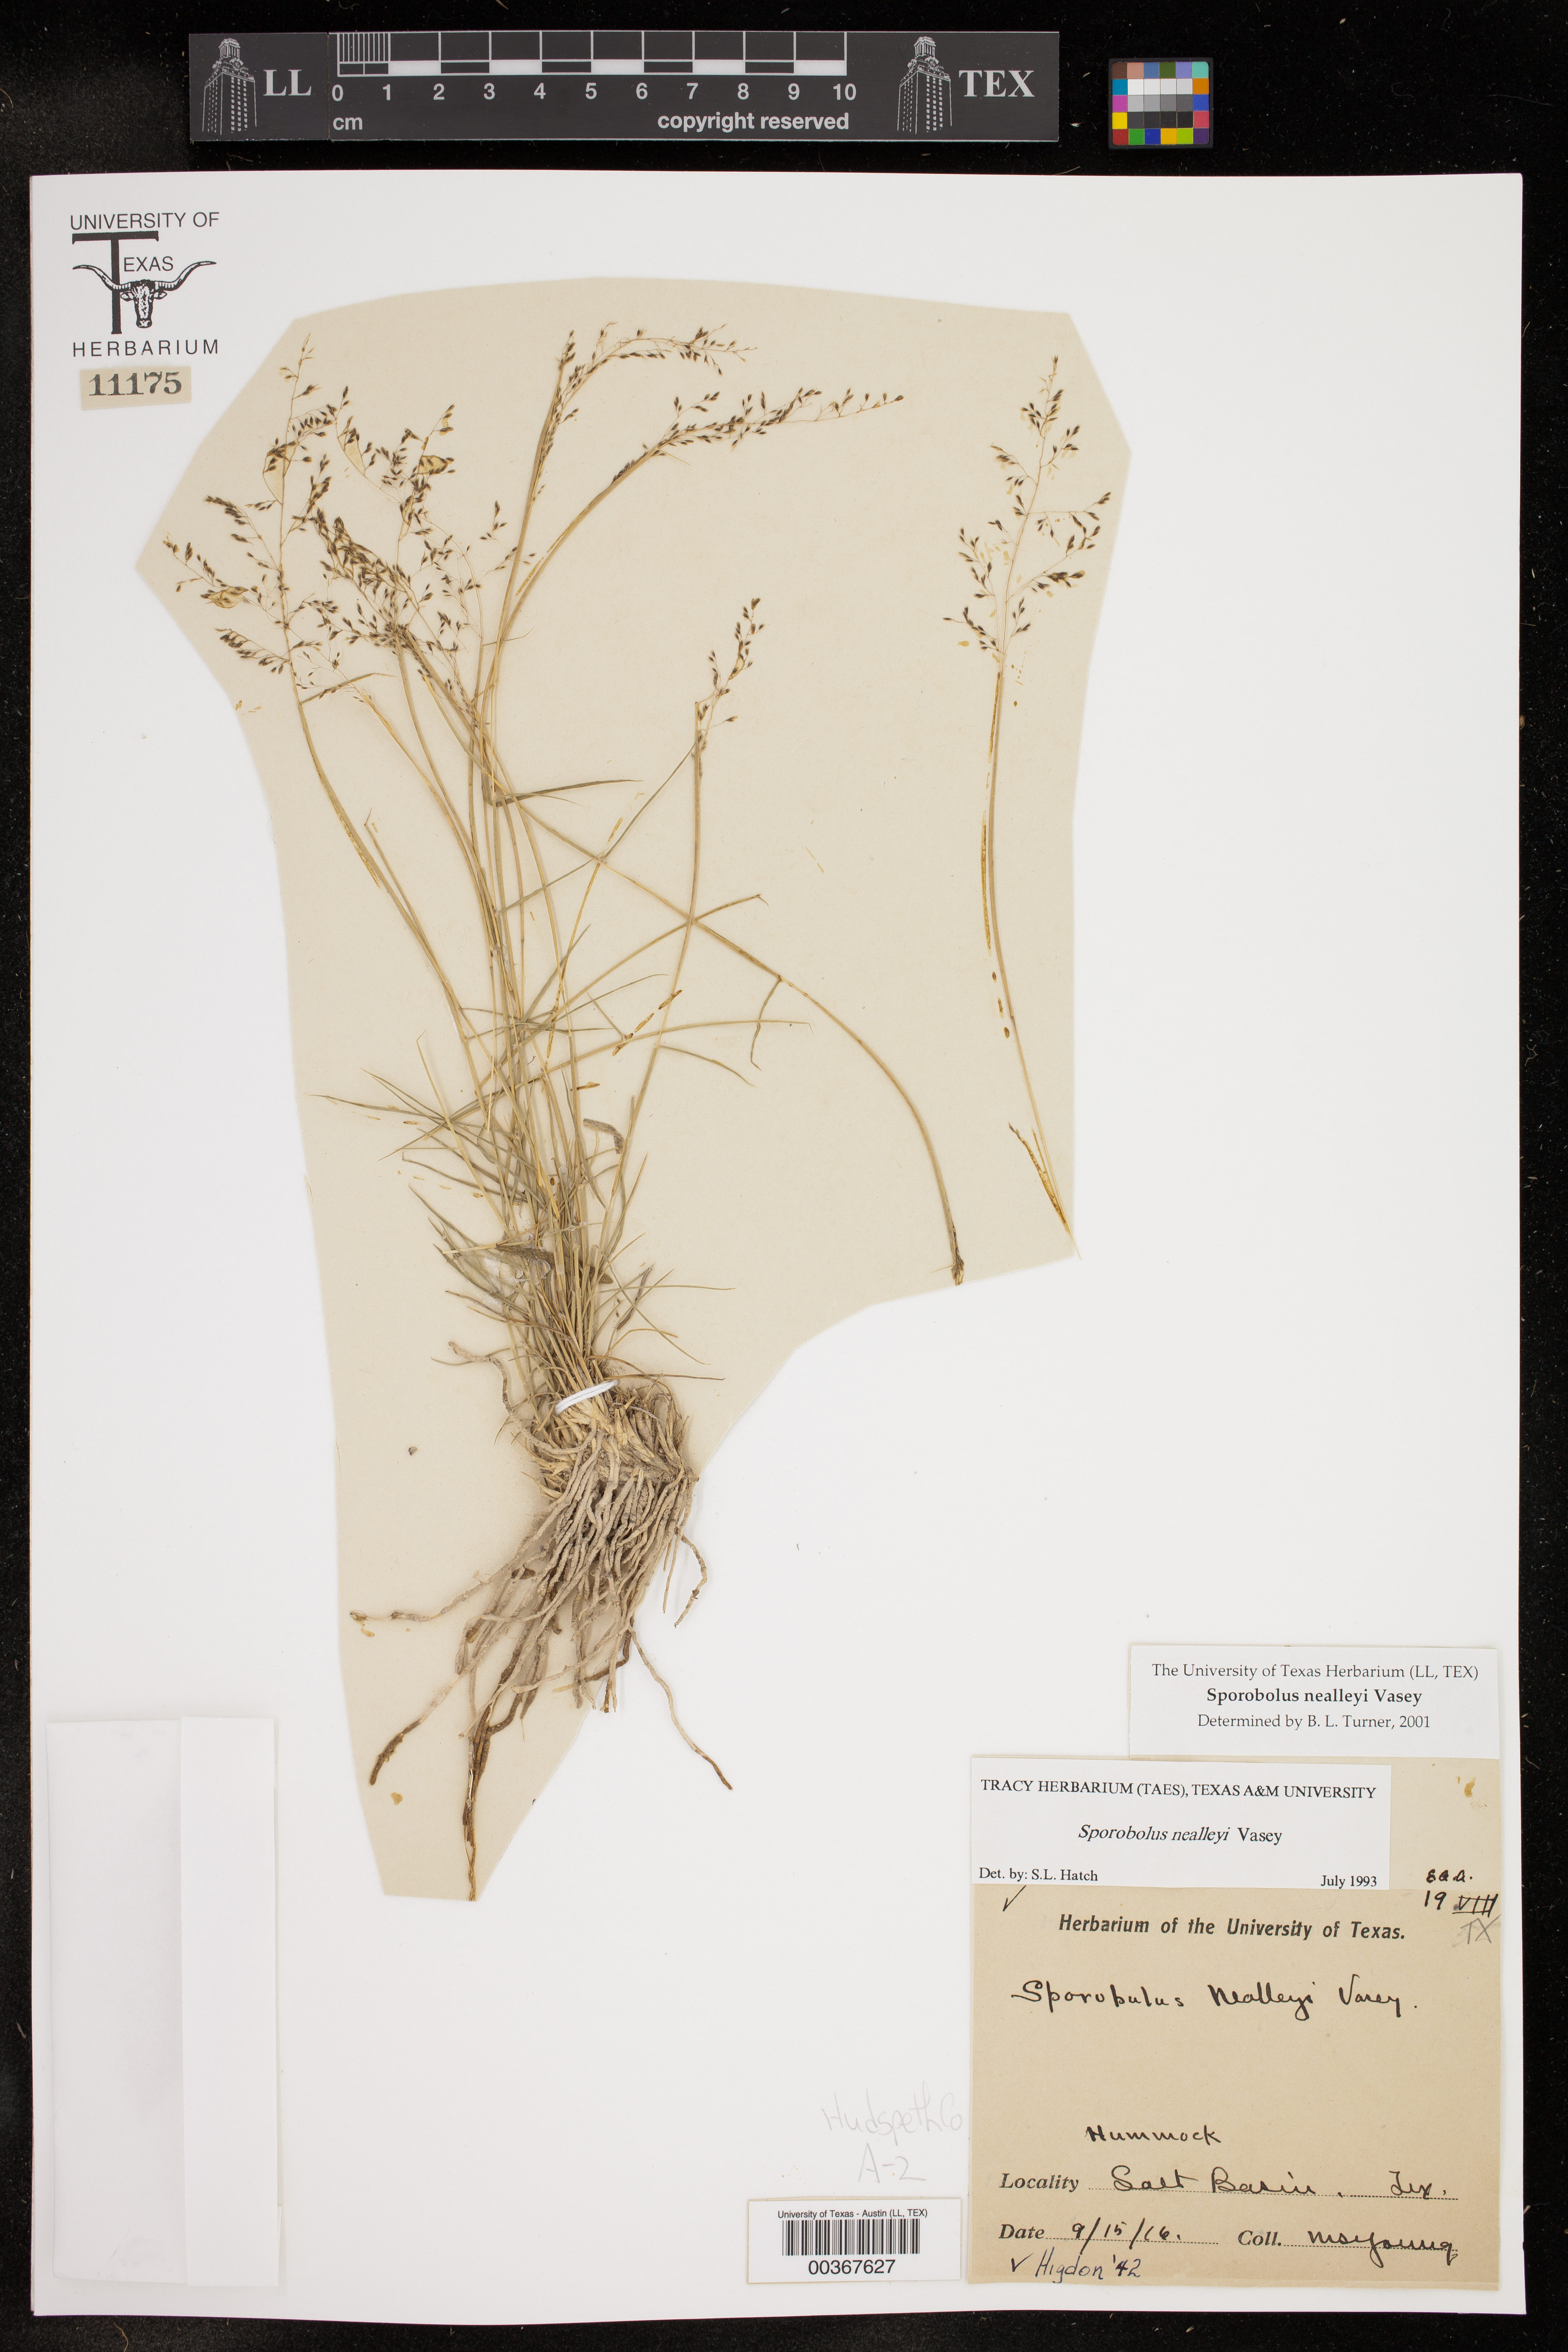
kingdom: Plantae
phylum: Tracheophyta
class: Liliopsida
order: Poales
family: Poaceae
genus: Sporobolus
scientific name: Sporobolus nealleyi
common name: Gyp grass
